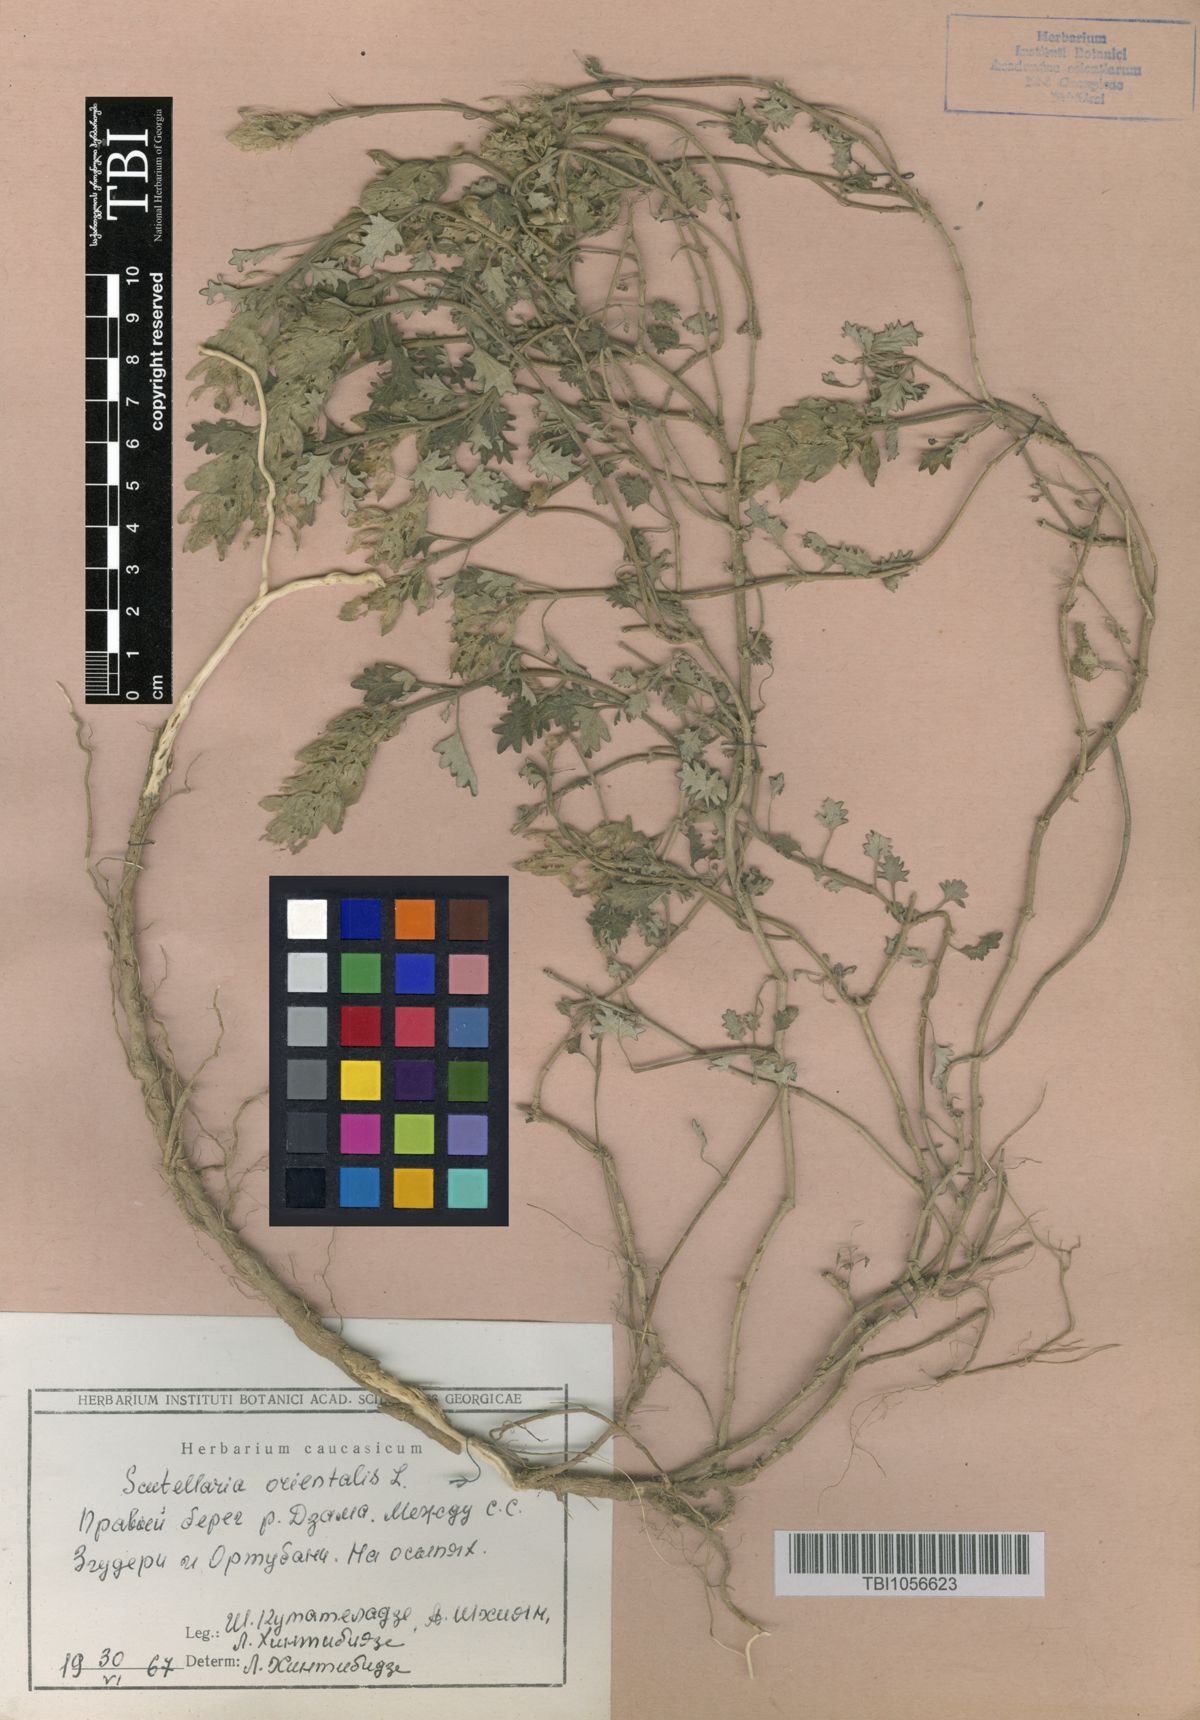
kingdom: Plantae
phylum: Tracheophyta
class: Magnoliopsida
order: Lamiales
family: Lamiaceae
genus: Scutellaria
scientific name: Scutellaria orientalis
